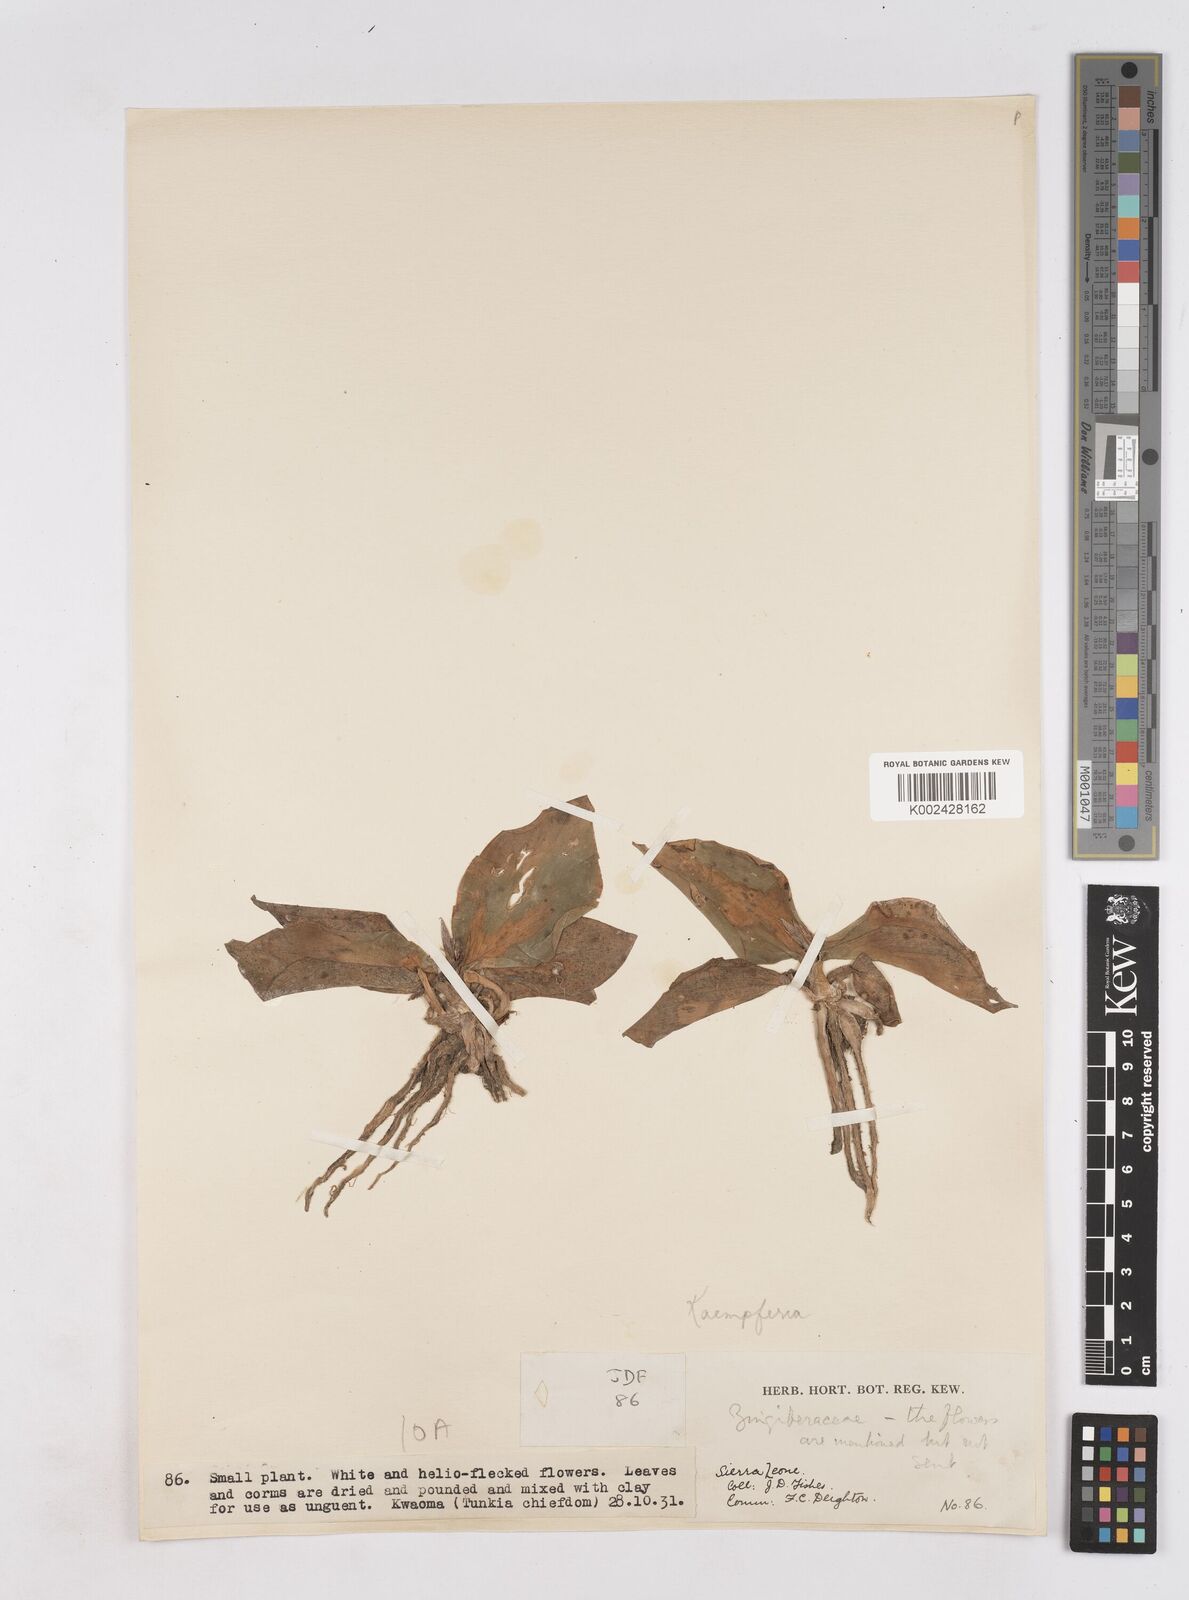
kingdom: Plantae
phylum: Tracheophyta
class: Liliopsida
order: Zingiberales
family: Zingiberaceae
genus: Kaempferia
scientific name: Kaempferia
